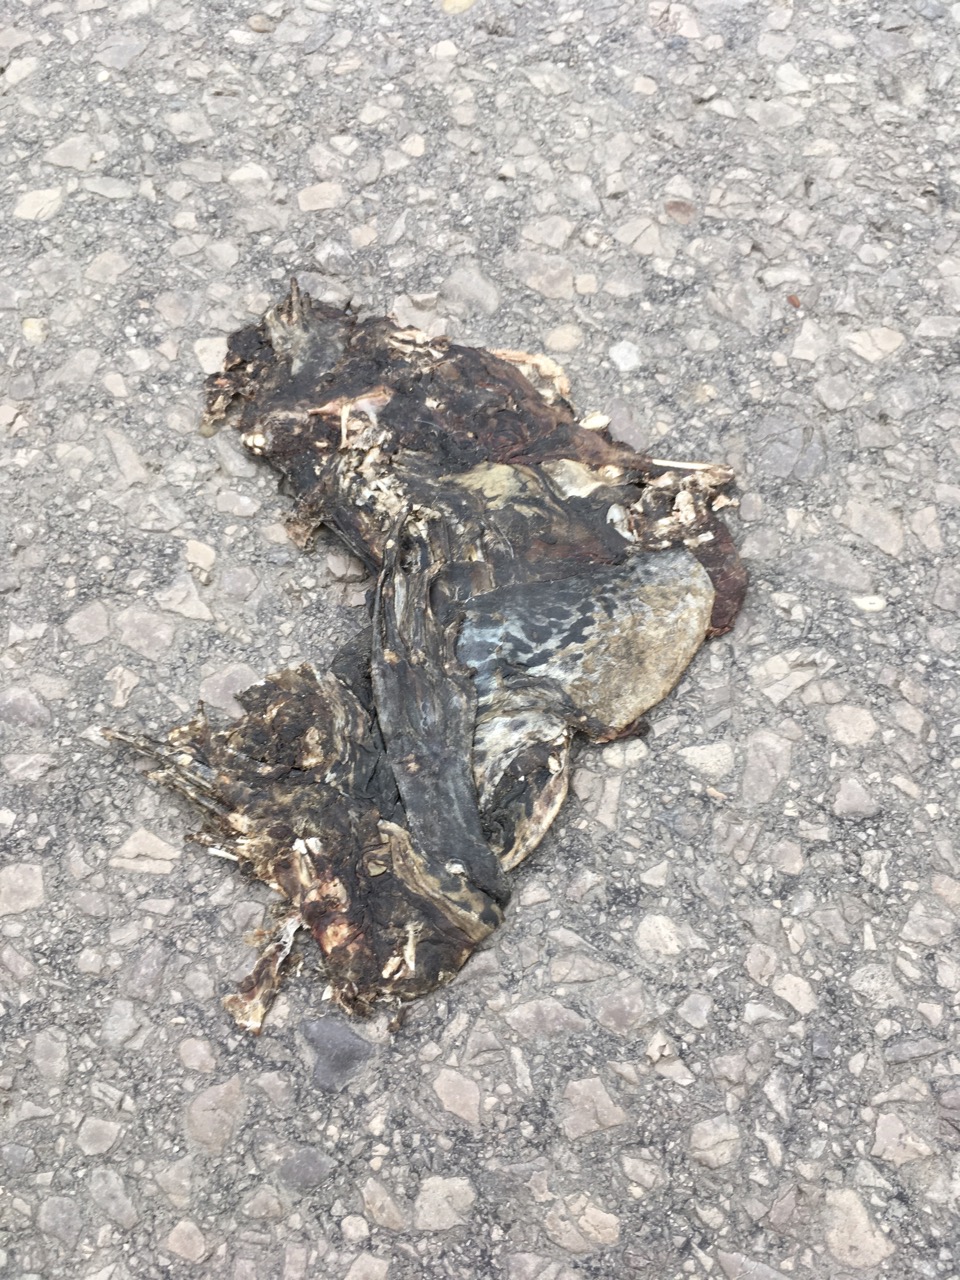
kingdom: Animalia
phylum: Chordata
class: Amphibia
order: Anura
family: Bufonidae
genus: Bufotes
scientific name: Bufotes viridis
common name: European green toad
